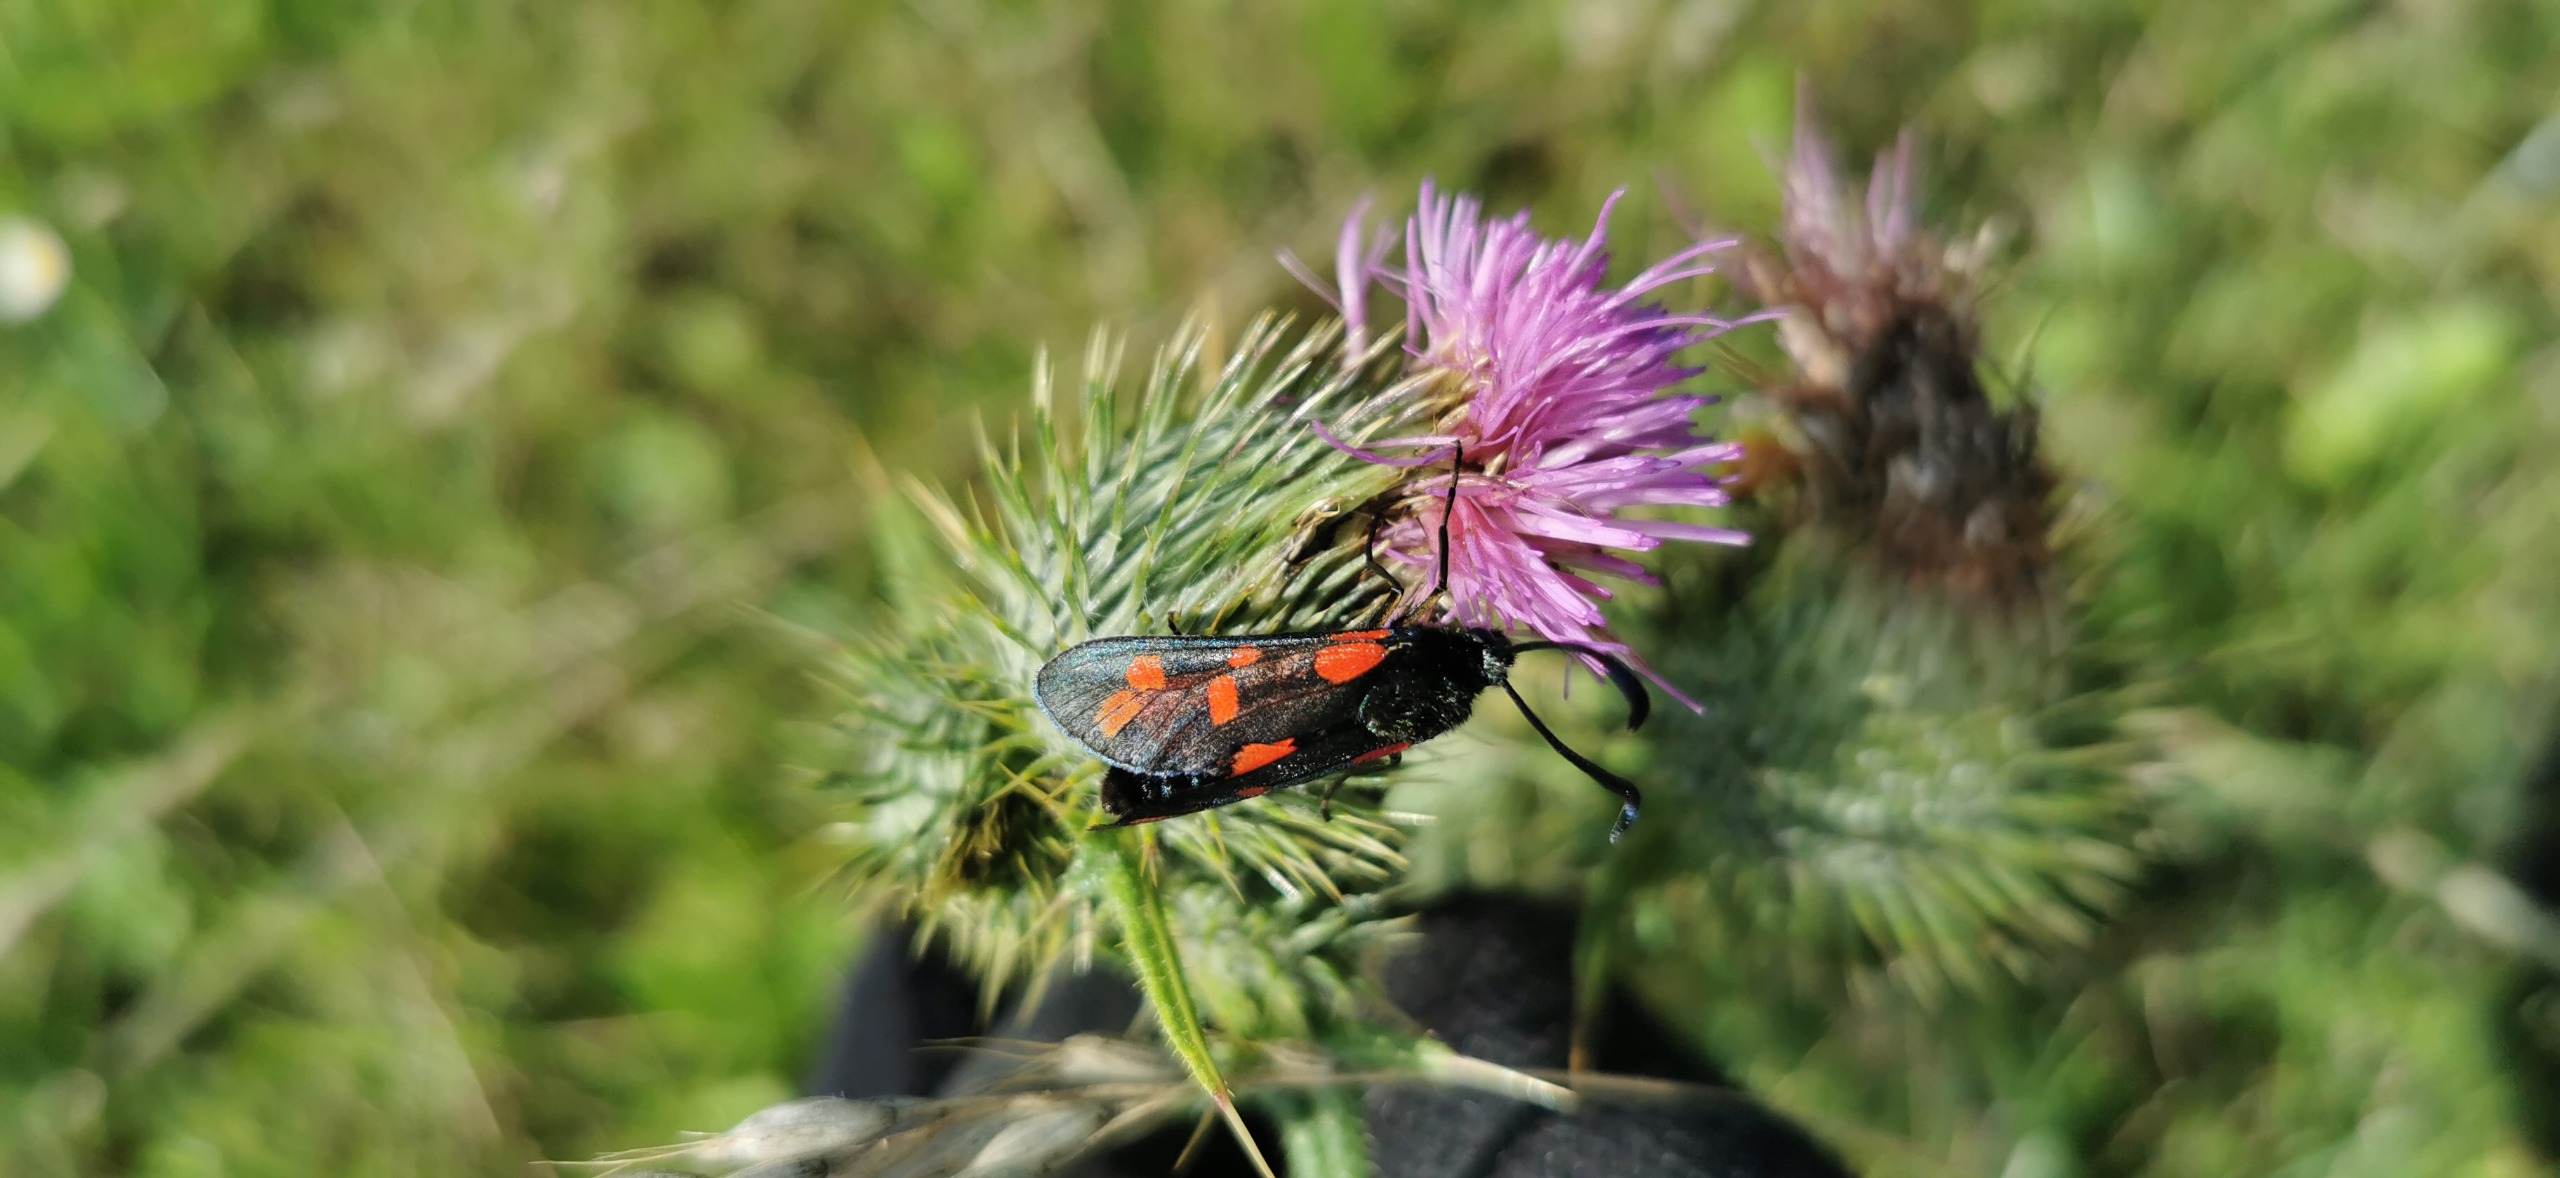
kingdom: Animalia
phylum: Arthropoda
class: Insecta
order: Lepidoptera
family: Zygaenidae
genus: Zygaena
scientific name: Zygaena filipendulae
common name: Seksplettet køllesværmer
